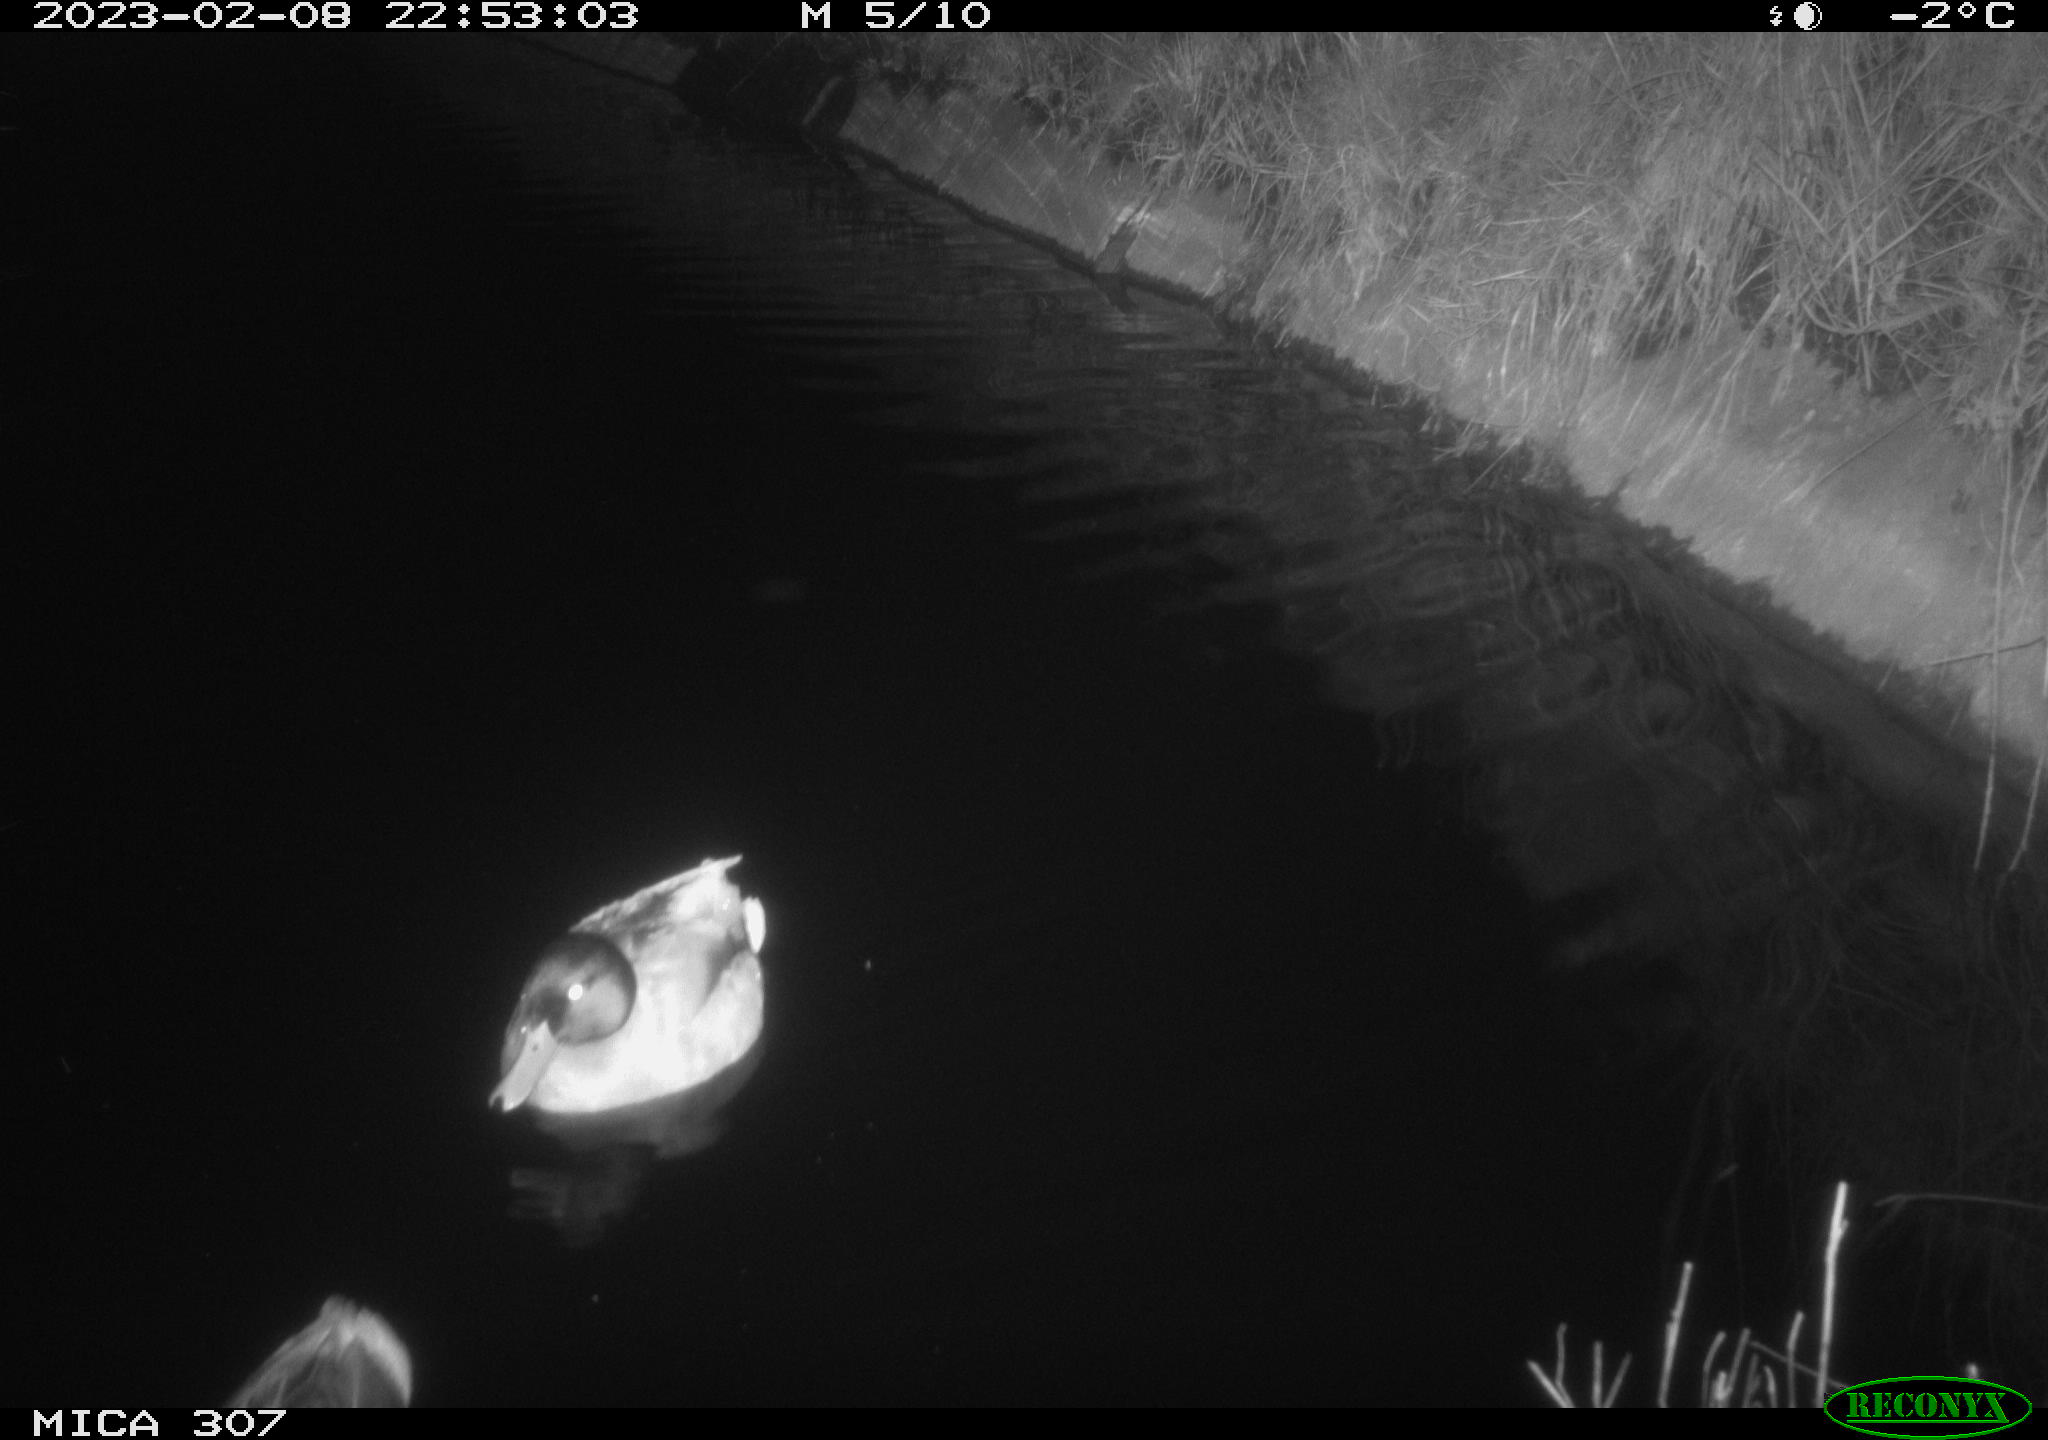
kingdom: Animalia
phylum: Chordata
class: Aves
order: Anseriformes
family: Anatidae
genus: Anas
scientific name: Anas
